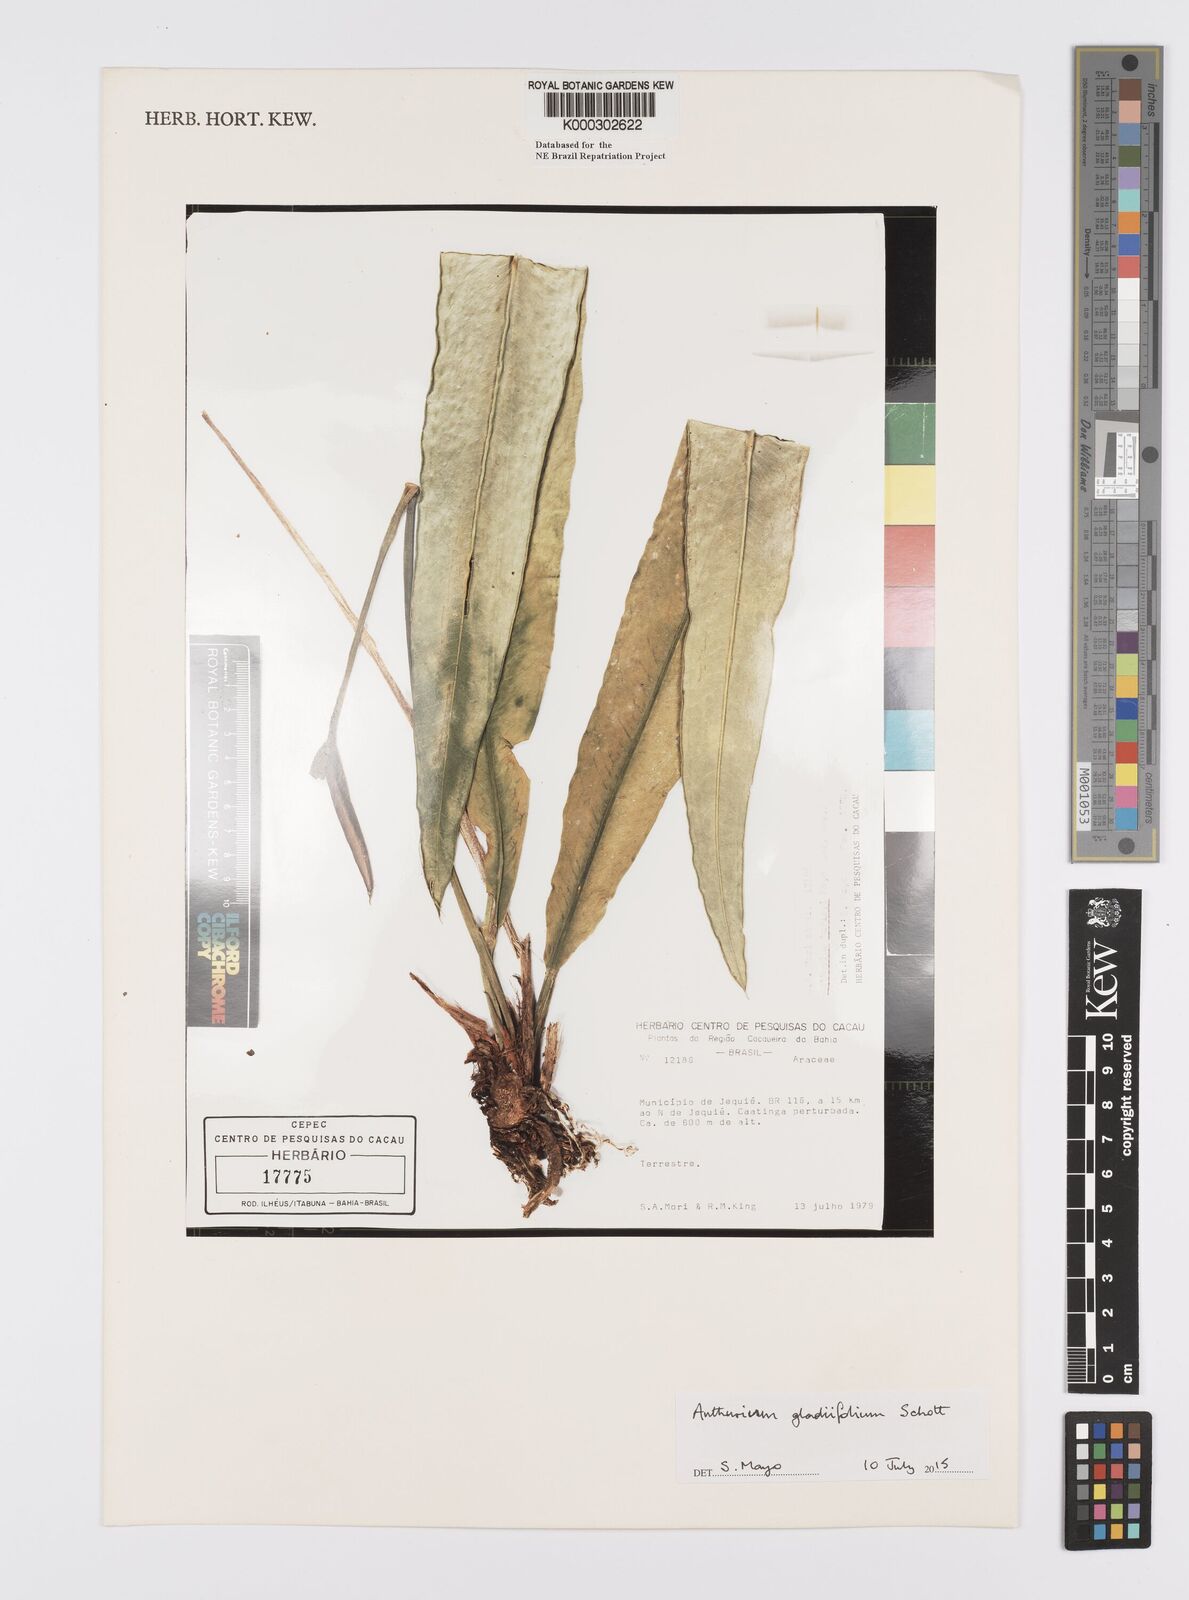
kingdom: Plantae
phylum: Tracheophyta
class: Liliopsida
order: Alismatales
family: Araceae
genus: Anthurium
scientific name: Anthurium
